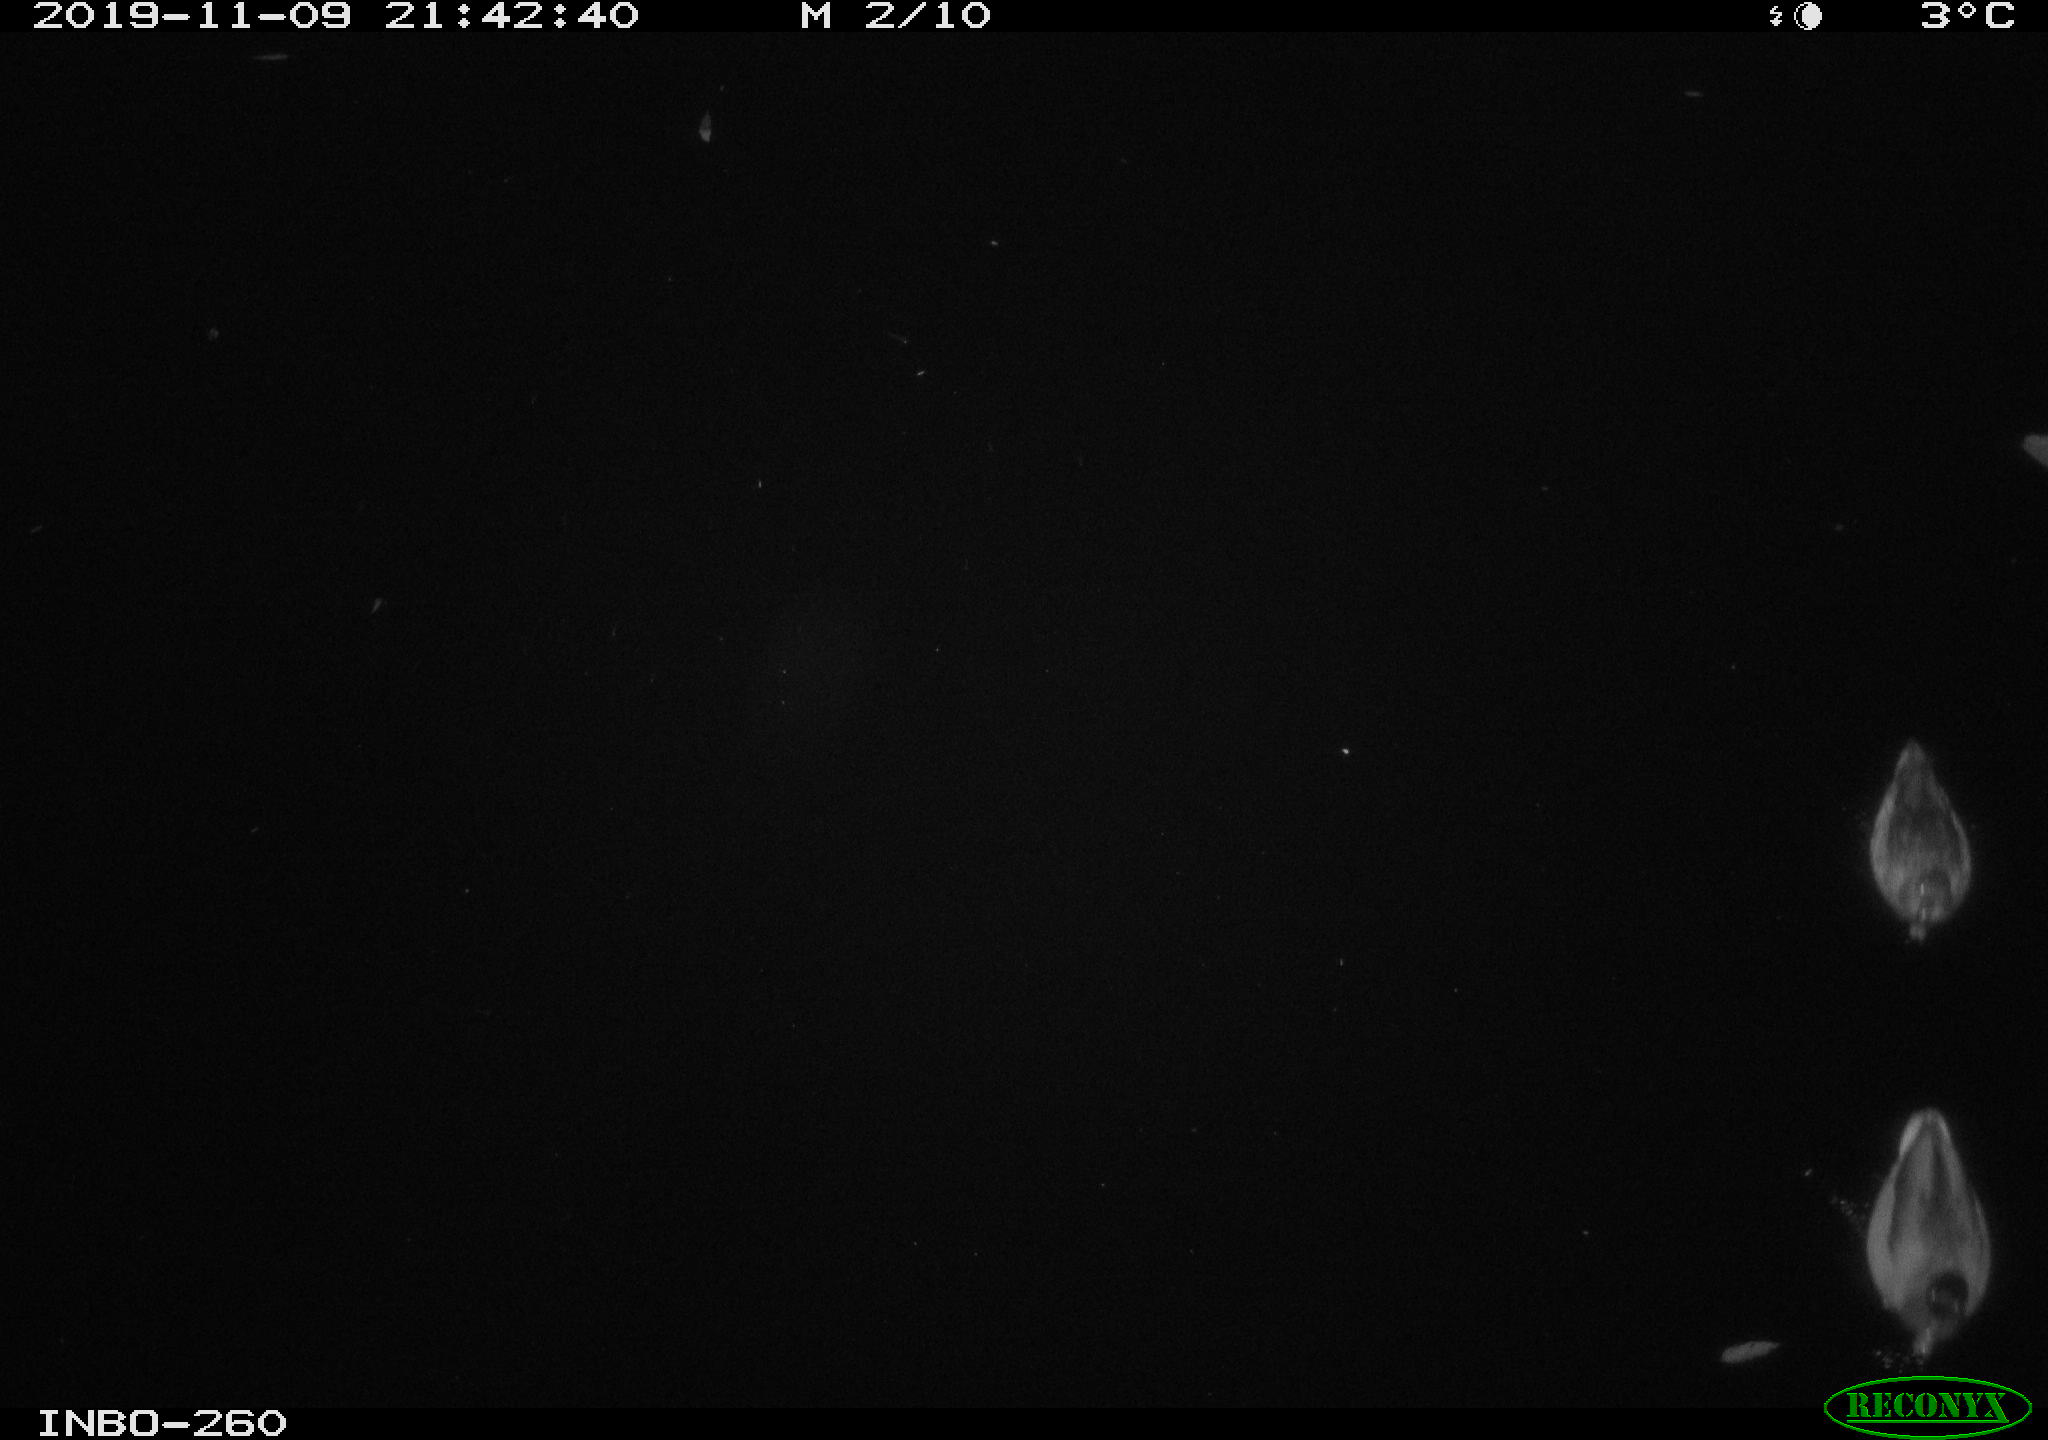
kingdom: Animalia
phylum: Chordata
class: Aves
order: Anseriformes
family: Anatidae
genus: Anas
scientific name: Anas platyrhynchos
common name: Mallard
